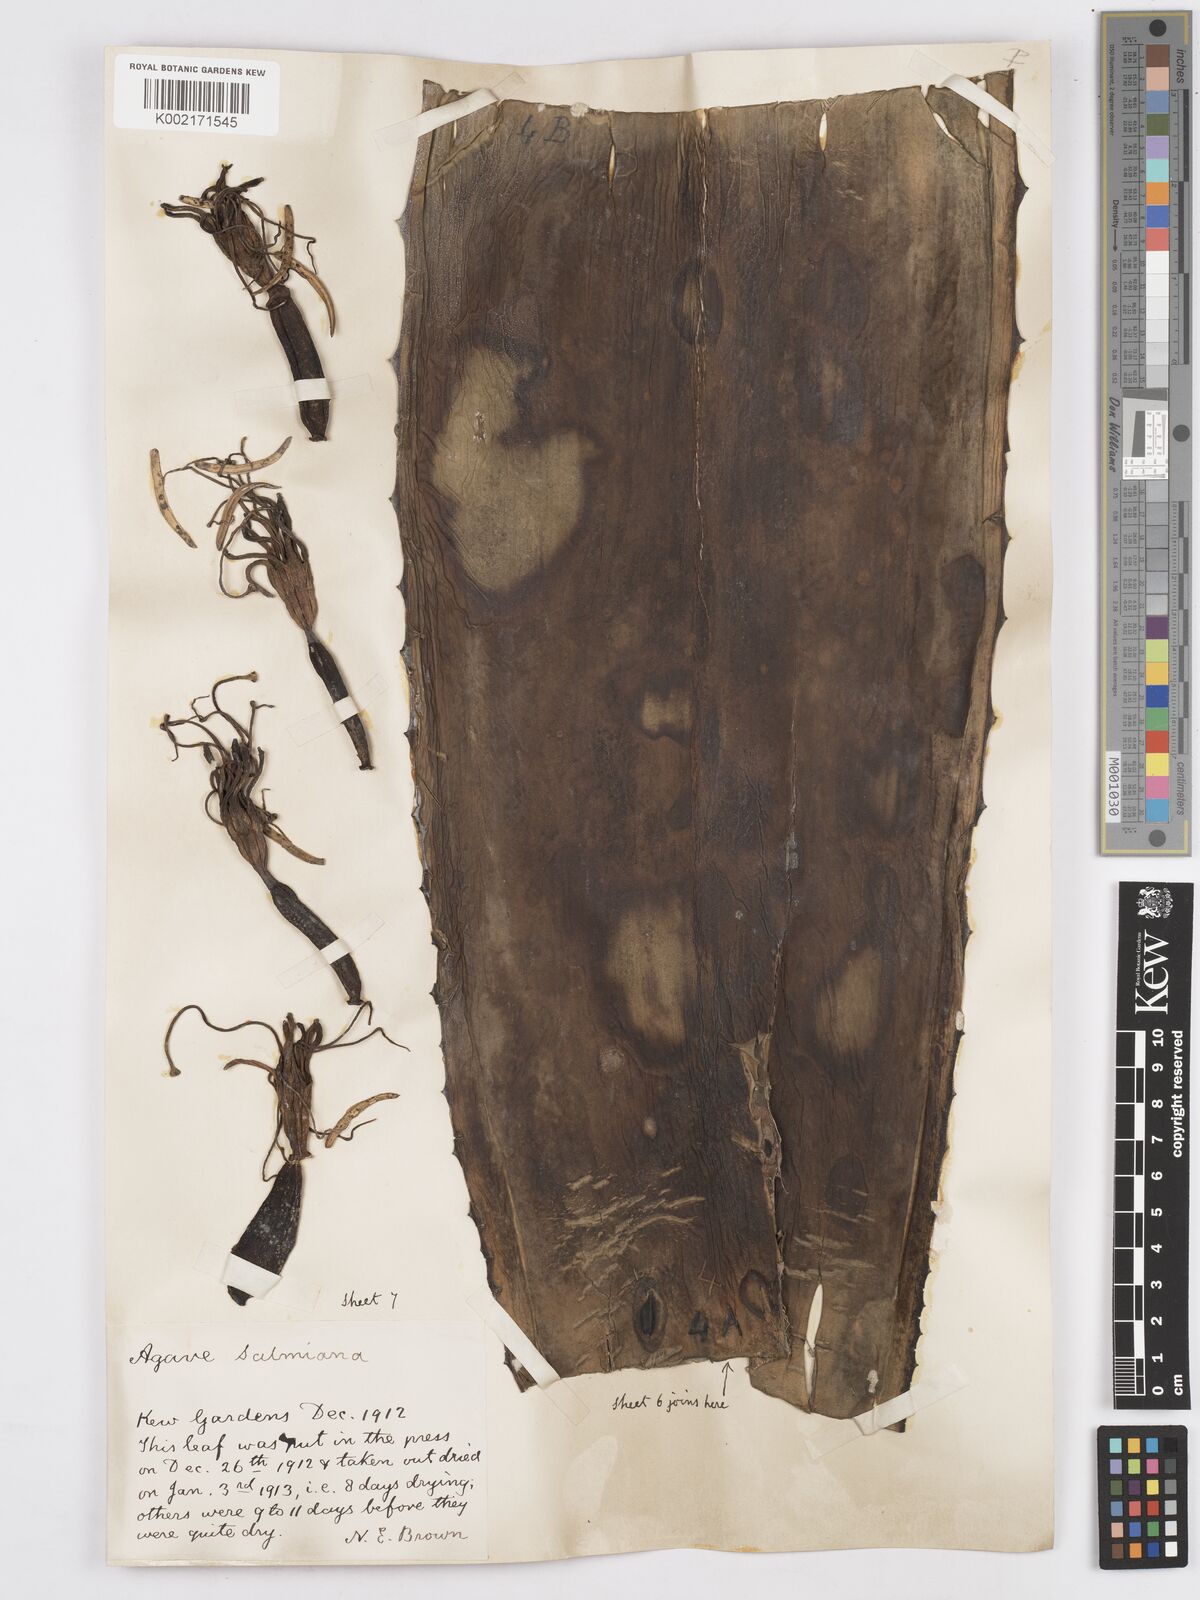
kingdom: Plantae
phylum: Tracheophyta
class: Liliopsida
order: Asparagales
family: Asparagaceae
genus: Agave
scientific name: Agave salmiana
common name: Pulque agave
